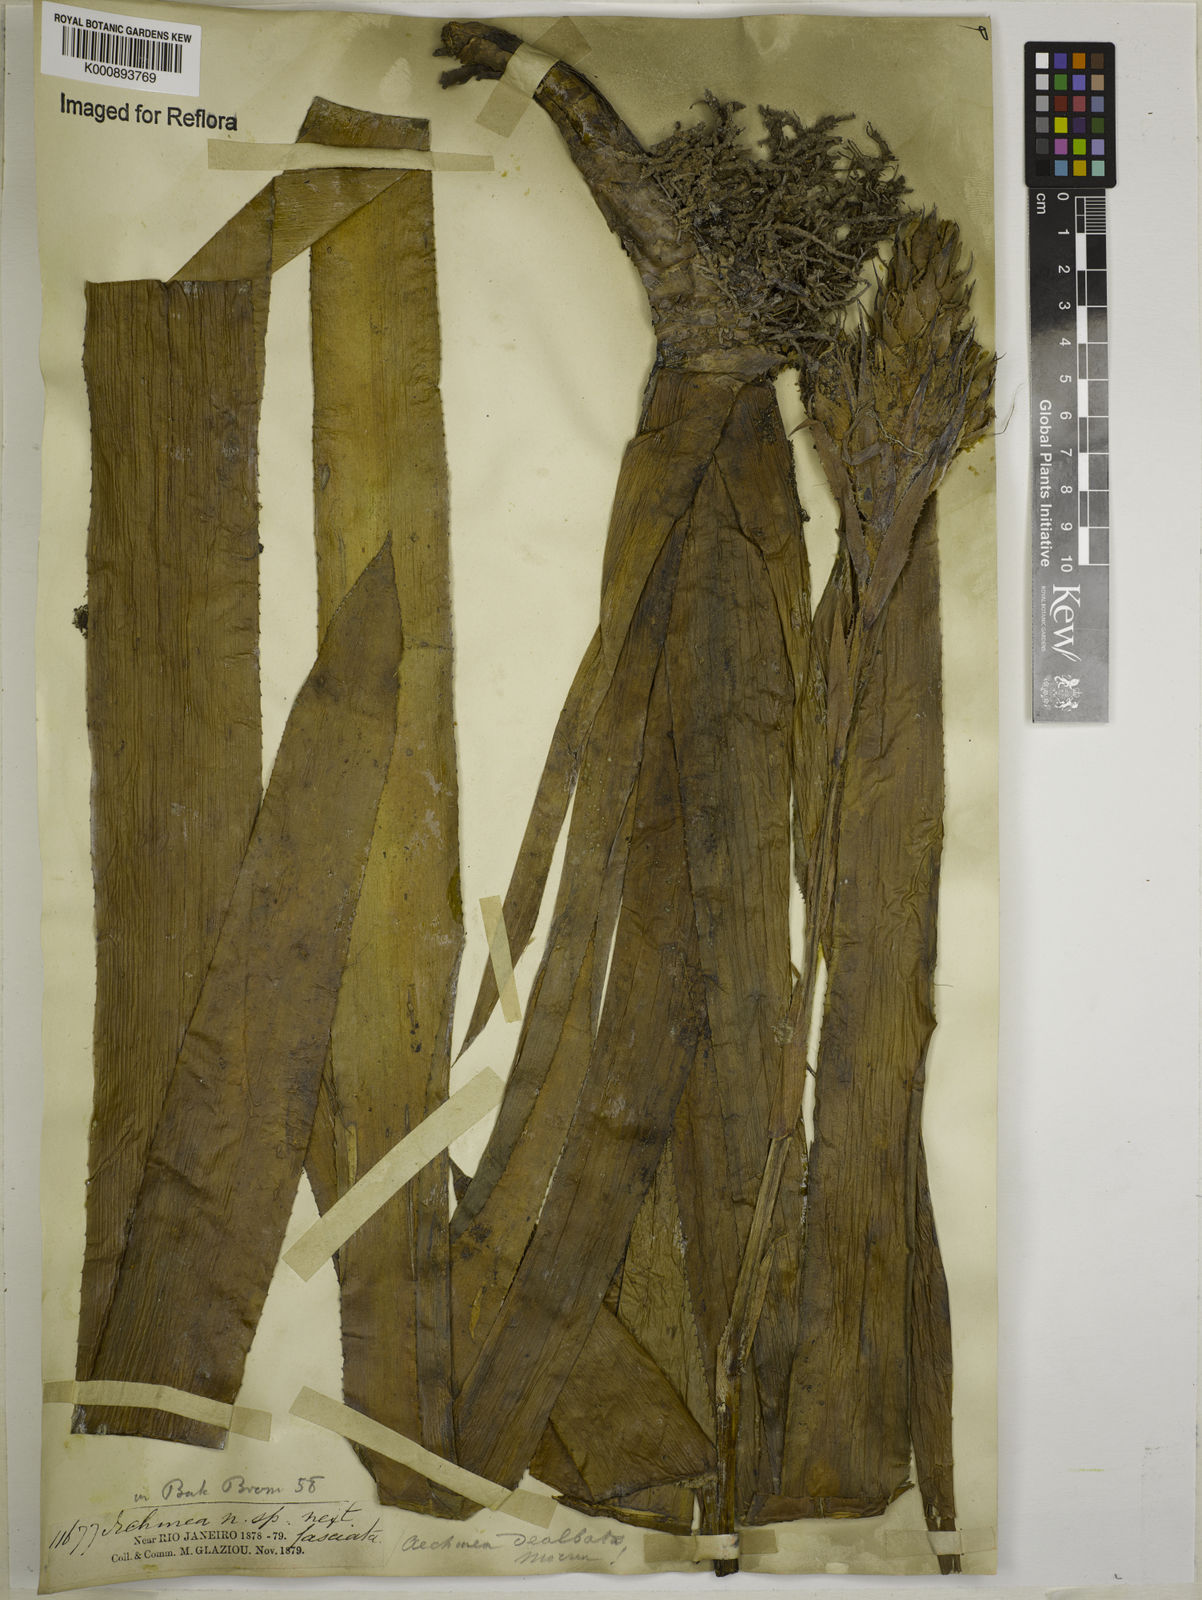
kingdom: Plantae
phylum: Tracheophyta
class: Liliopsida
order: Poales
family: Bromeliaceae
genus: Aechmea
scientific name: Aechmea dealbata
